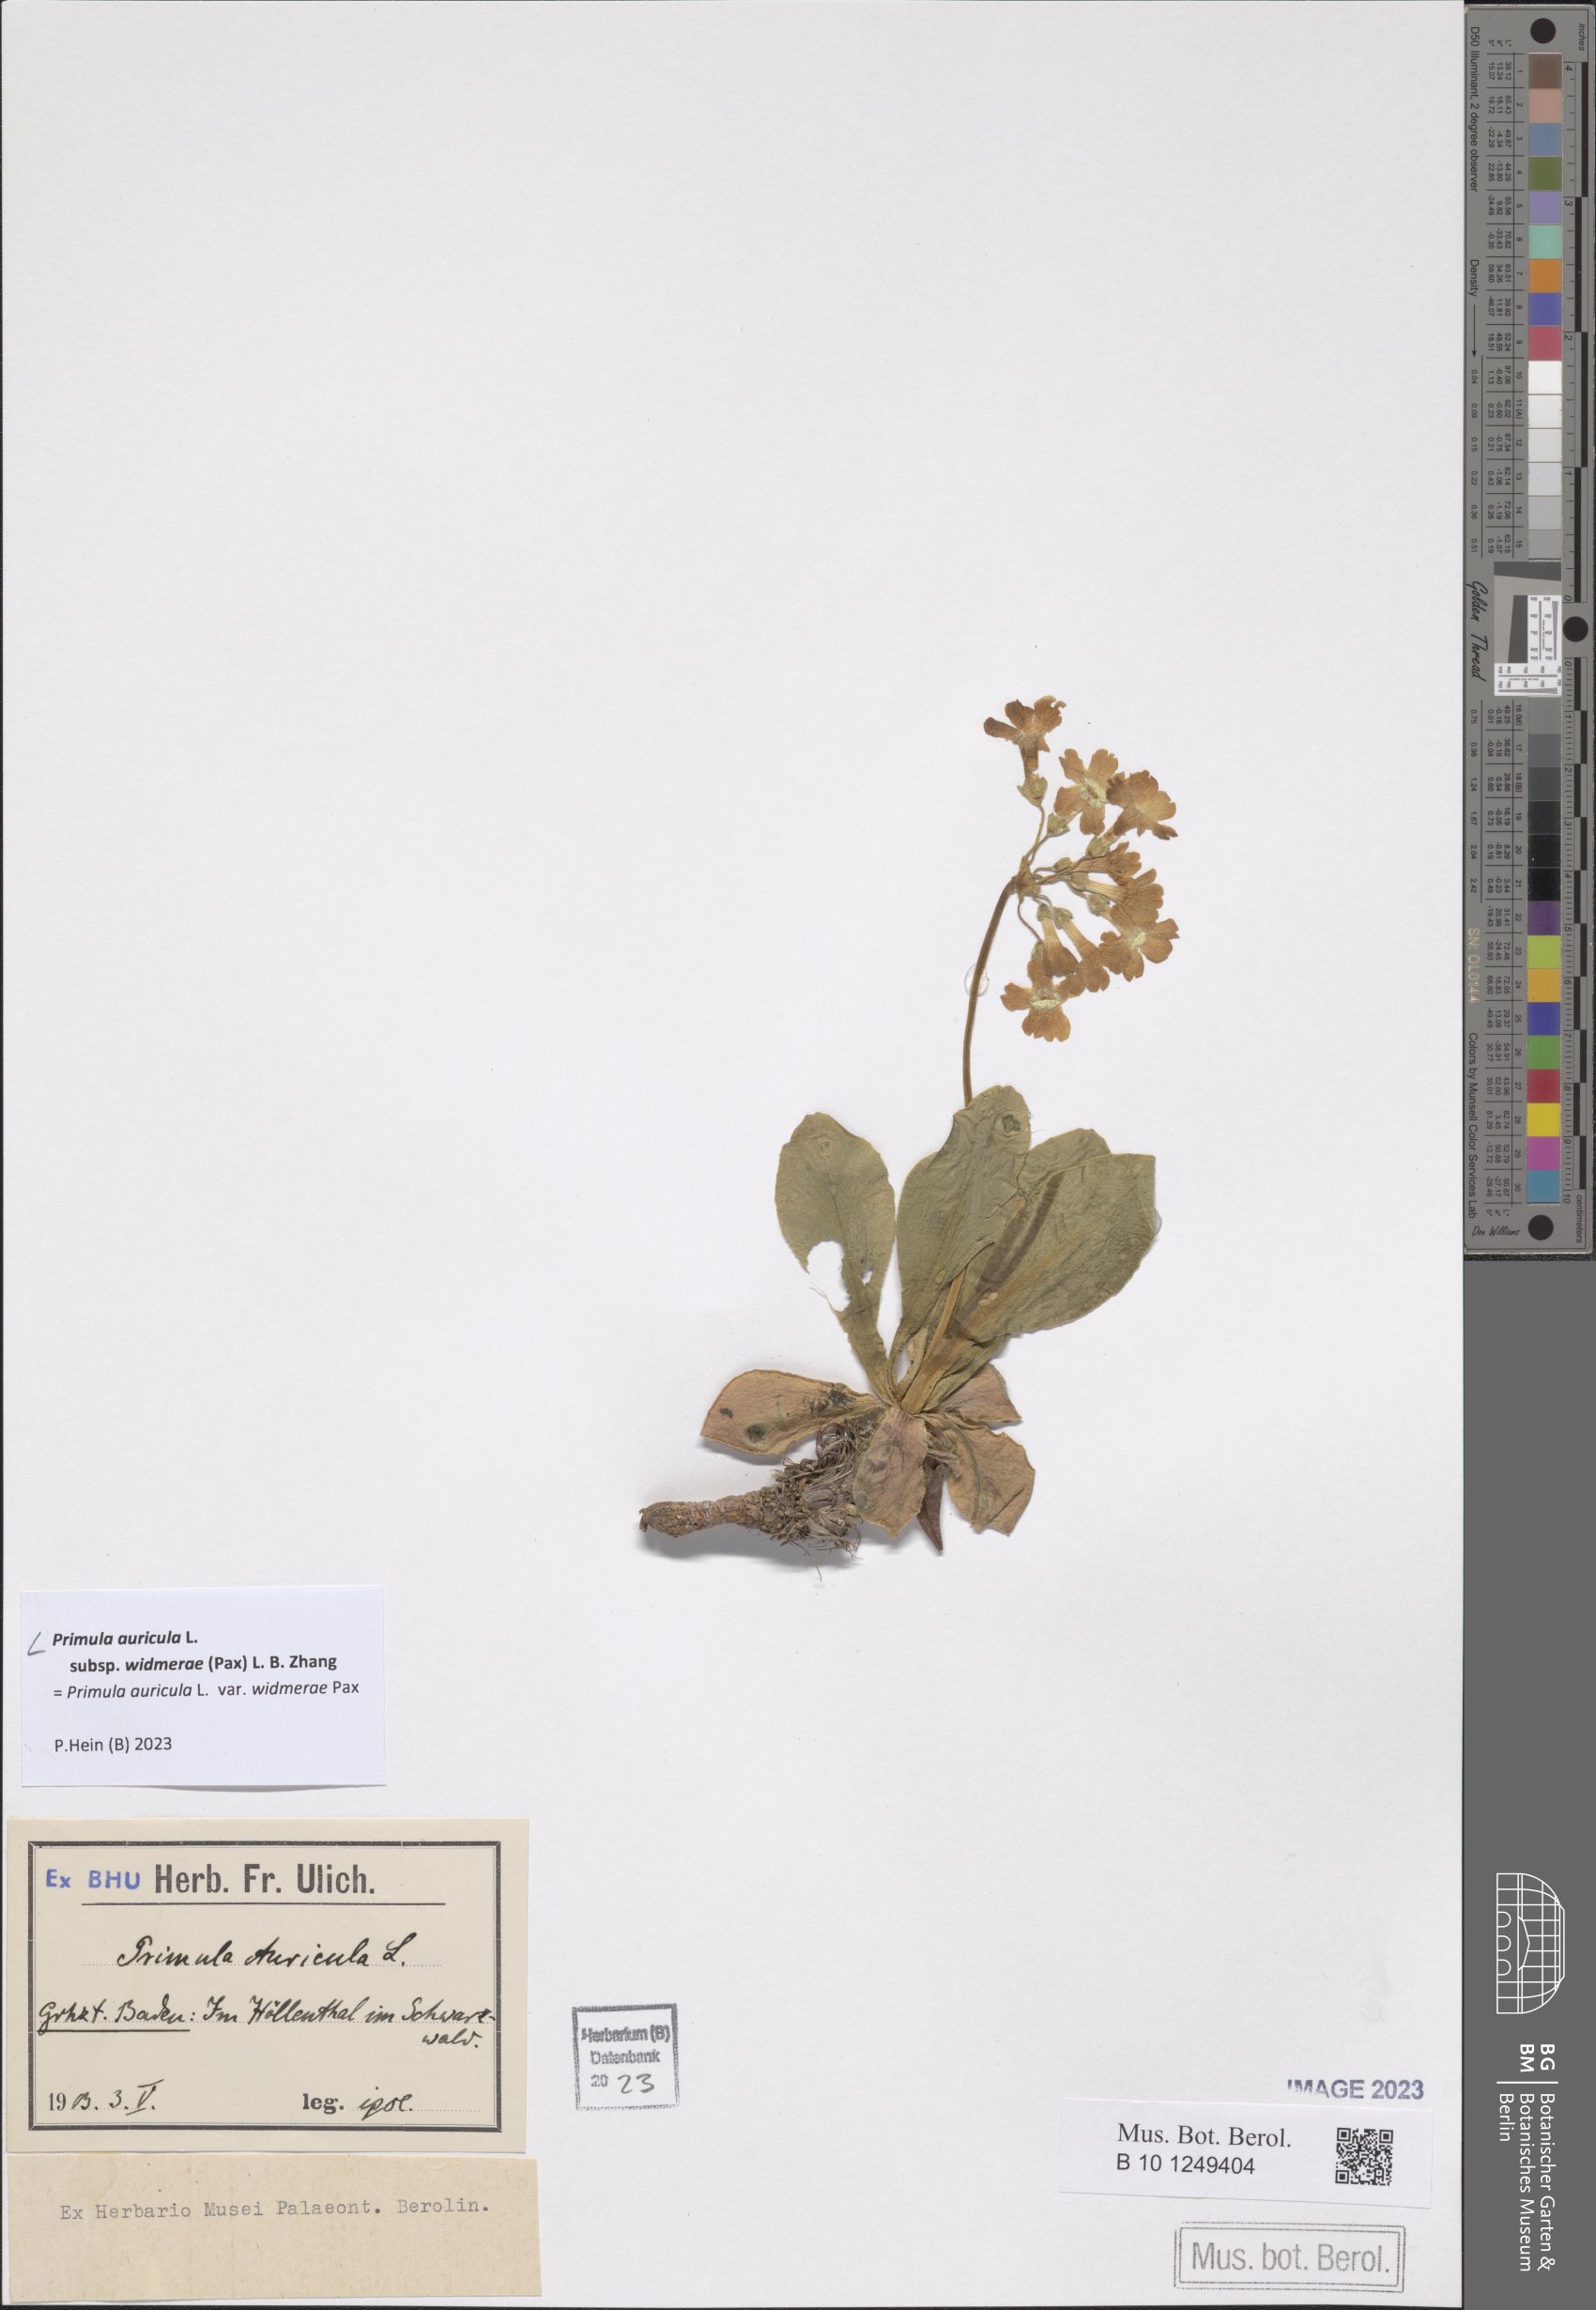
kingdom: Plantae
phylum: Tracheophyta
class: Magnoliopsida
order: Ericales
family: Primulaceae
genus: Primula
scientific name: Primula auricula
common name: Auricula
